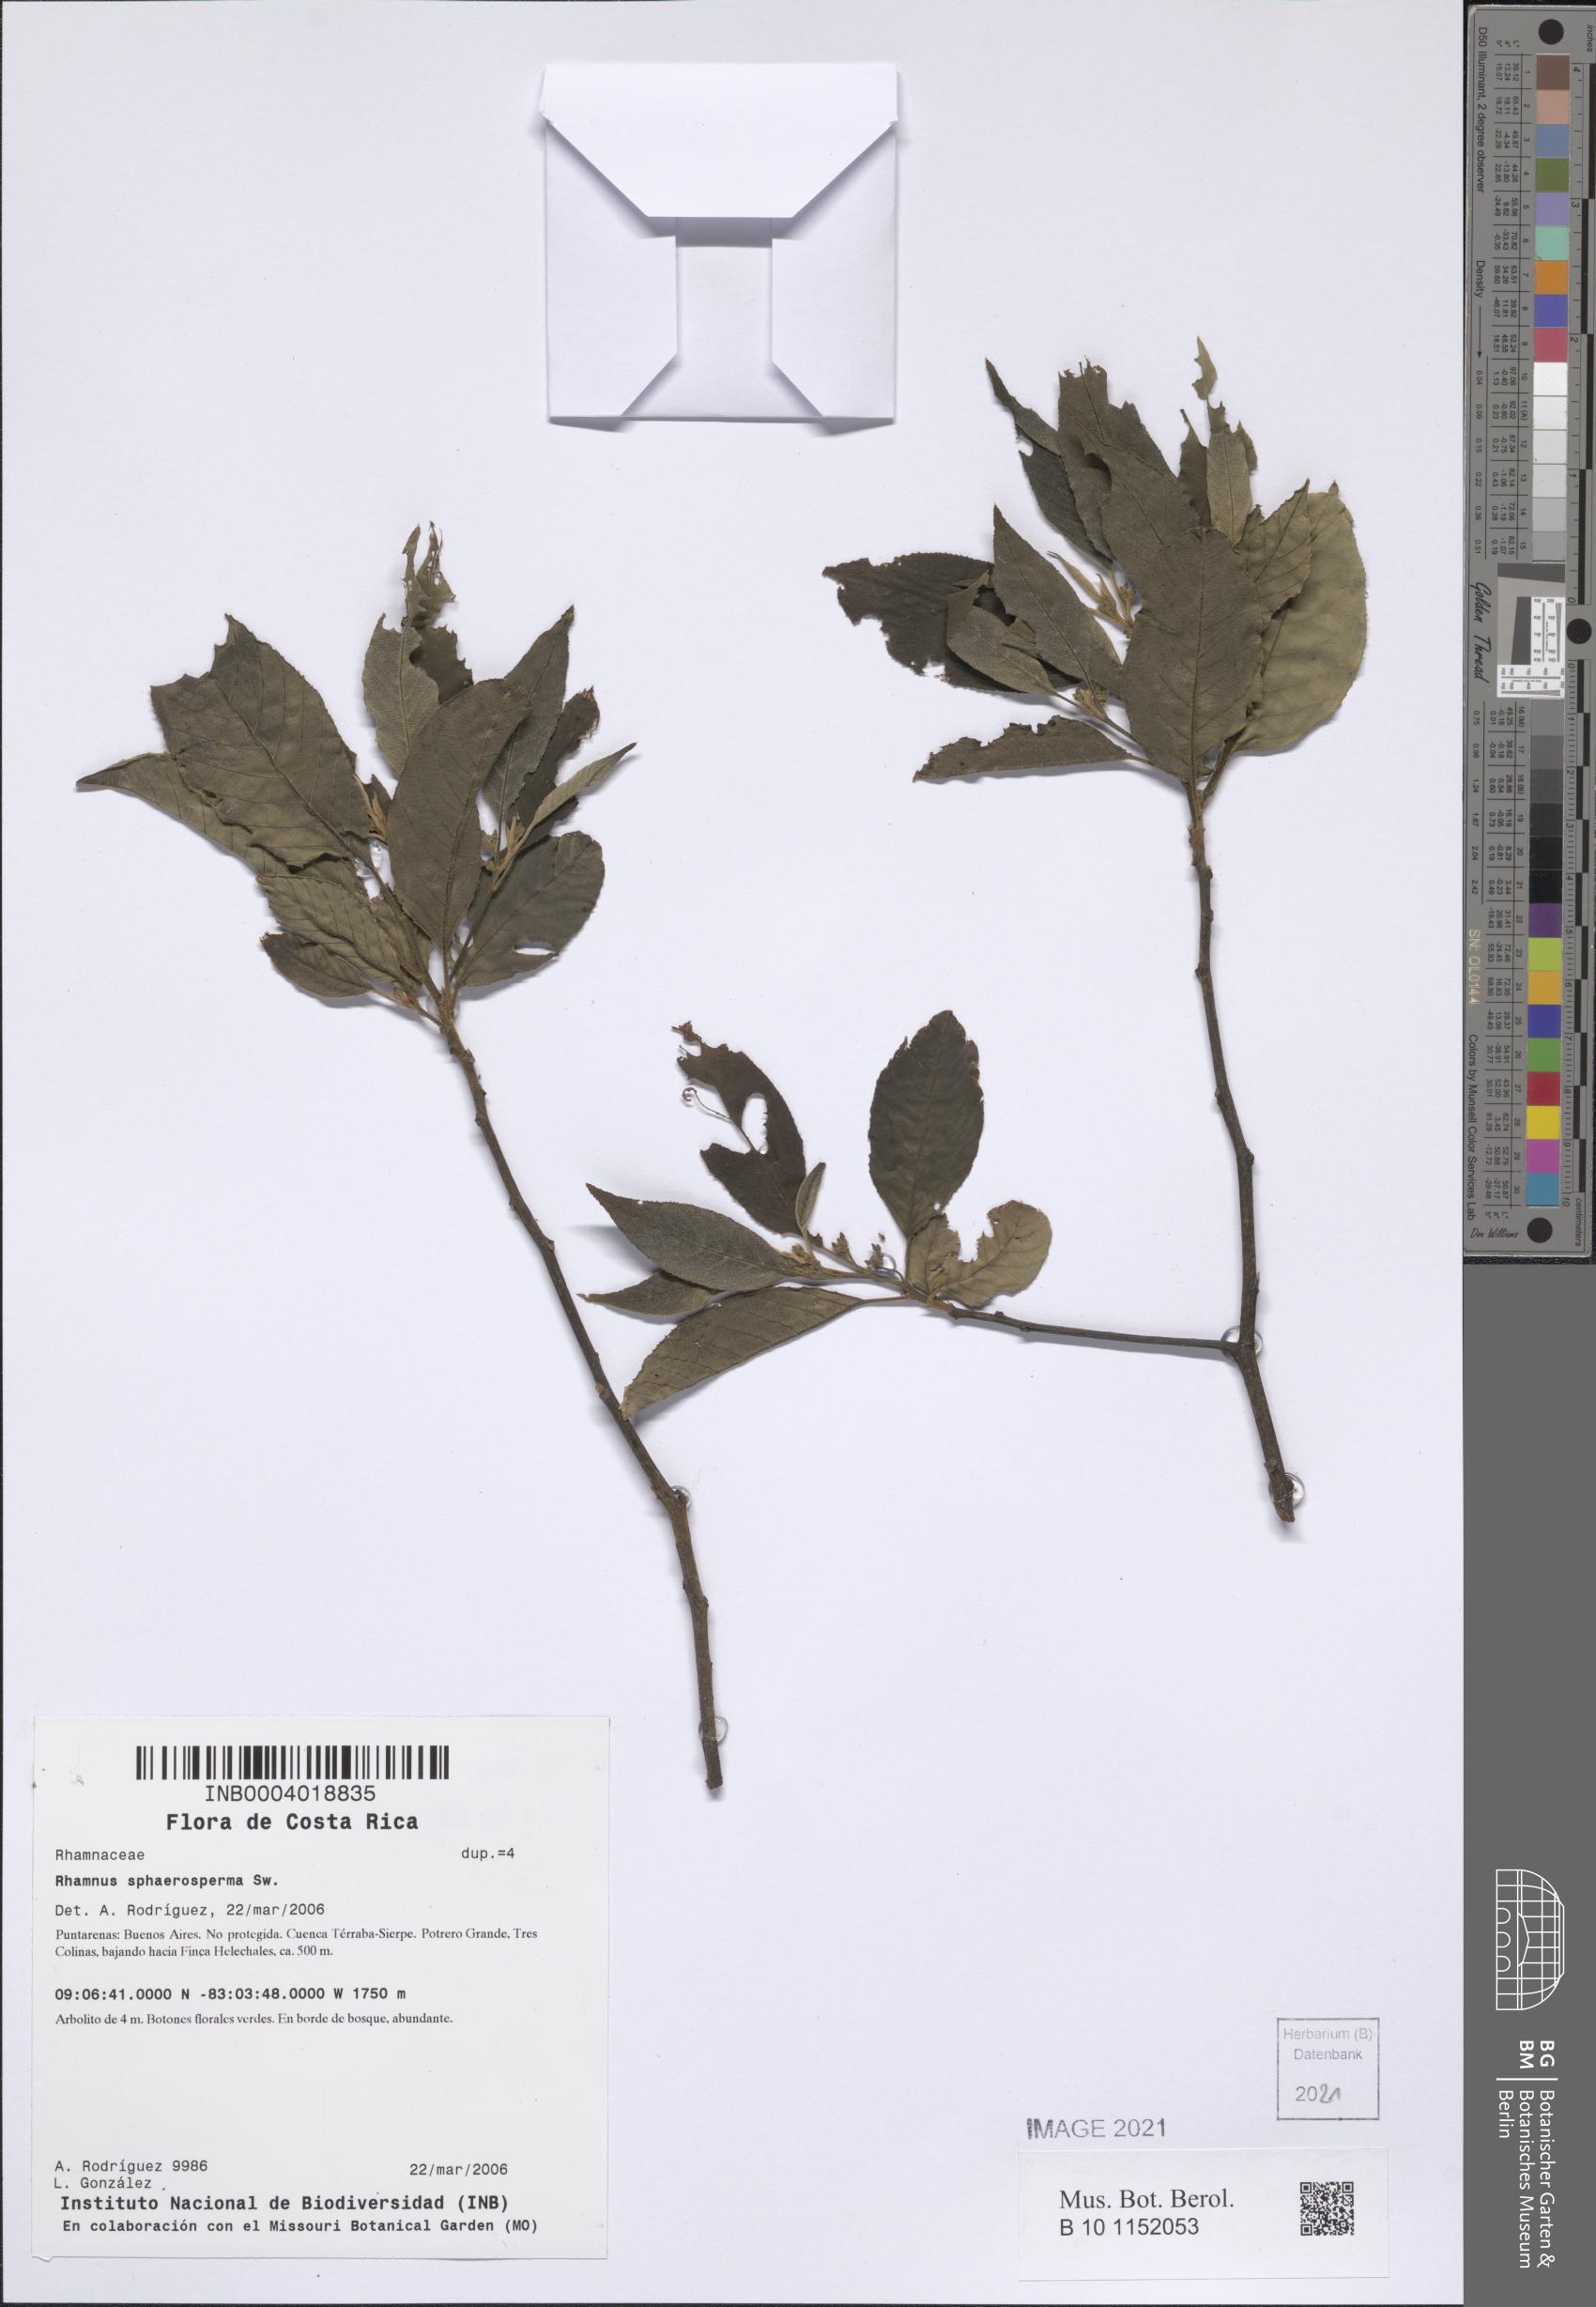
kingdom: Plantae
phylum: Tracheophyta
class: Magnoliopsida
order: Rosales
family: Rhamnaceae
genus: Frangula
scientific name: Frangula pendula
